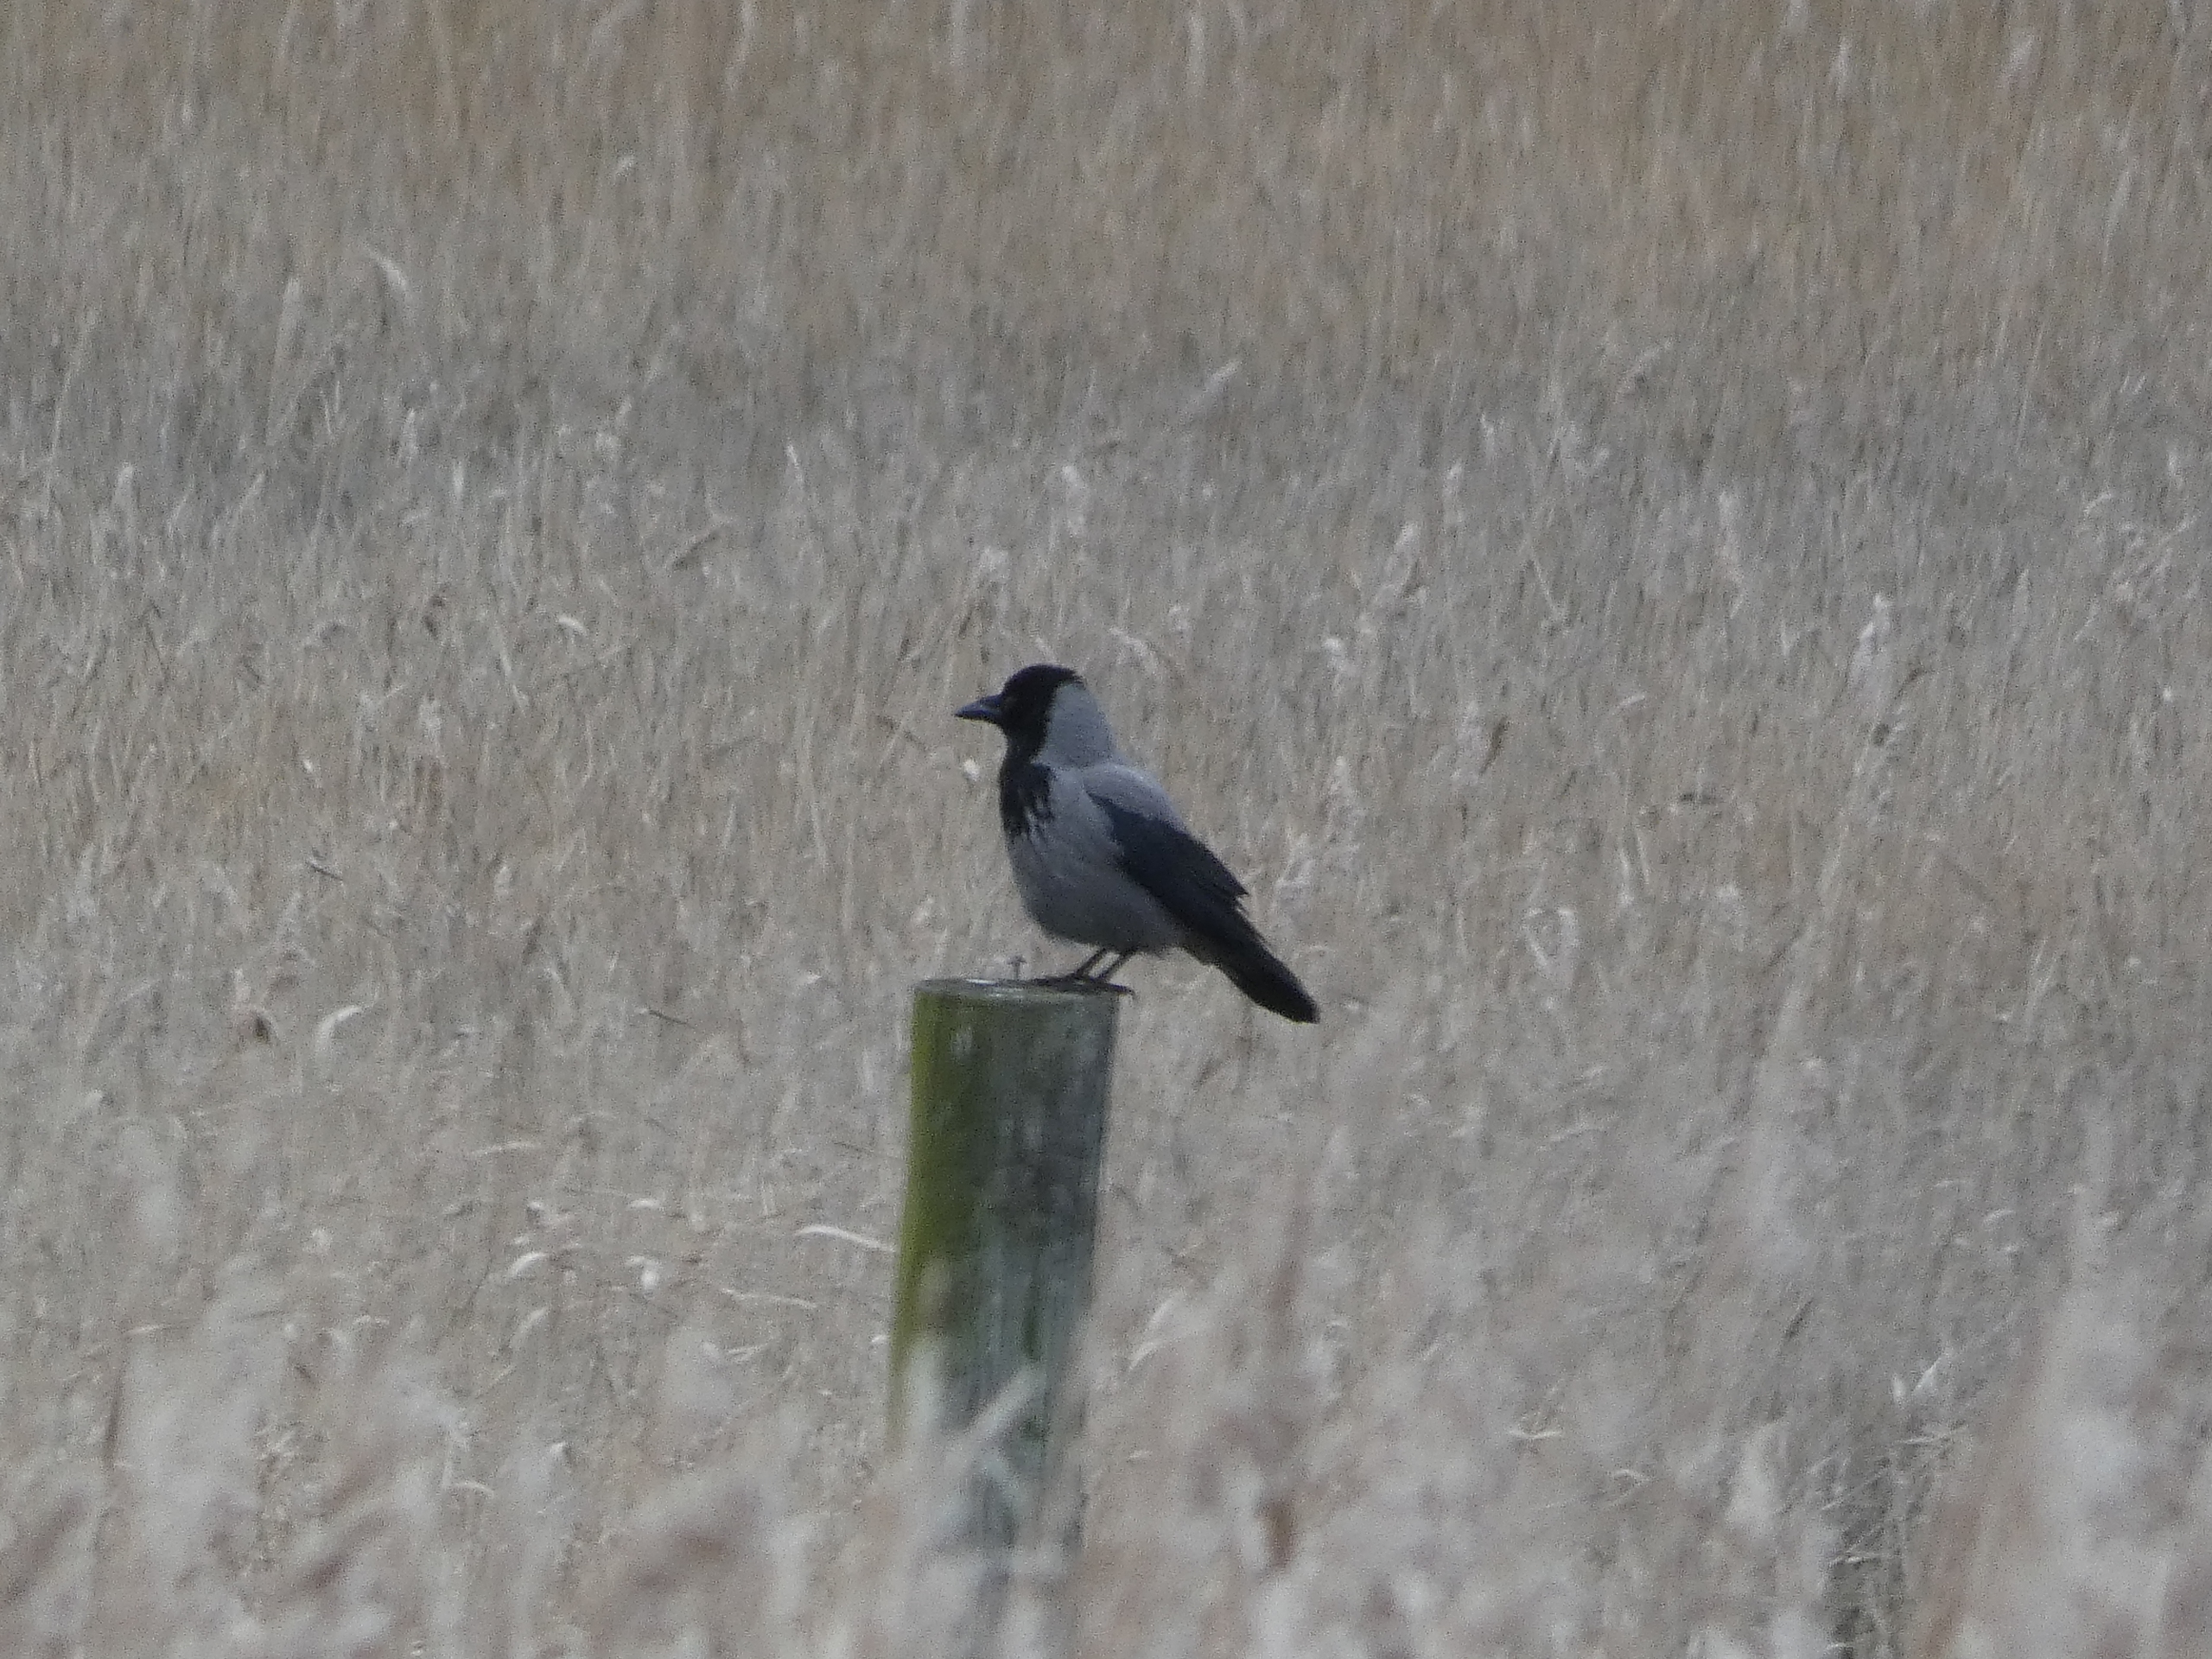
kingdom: Animalia
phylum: Chordata
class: Aves
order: Passeriformes
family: Corvidae
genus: Corvus
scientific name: Corvus cornix
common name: Gråkrage
